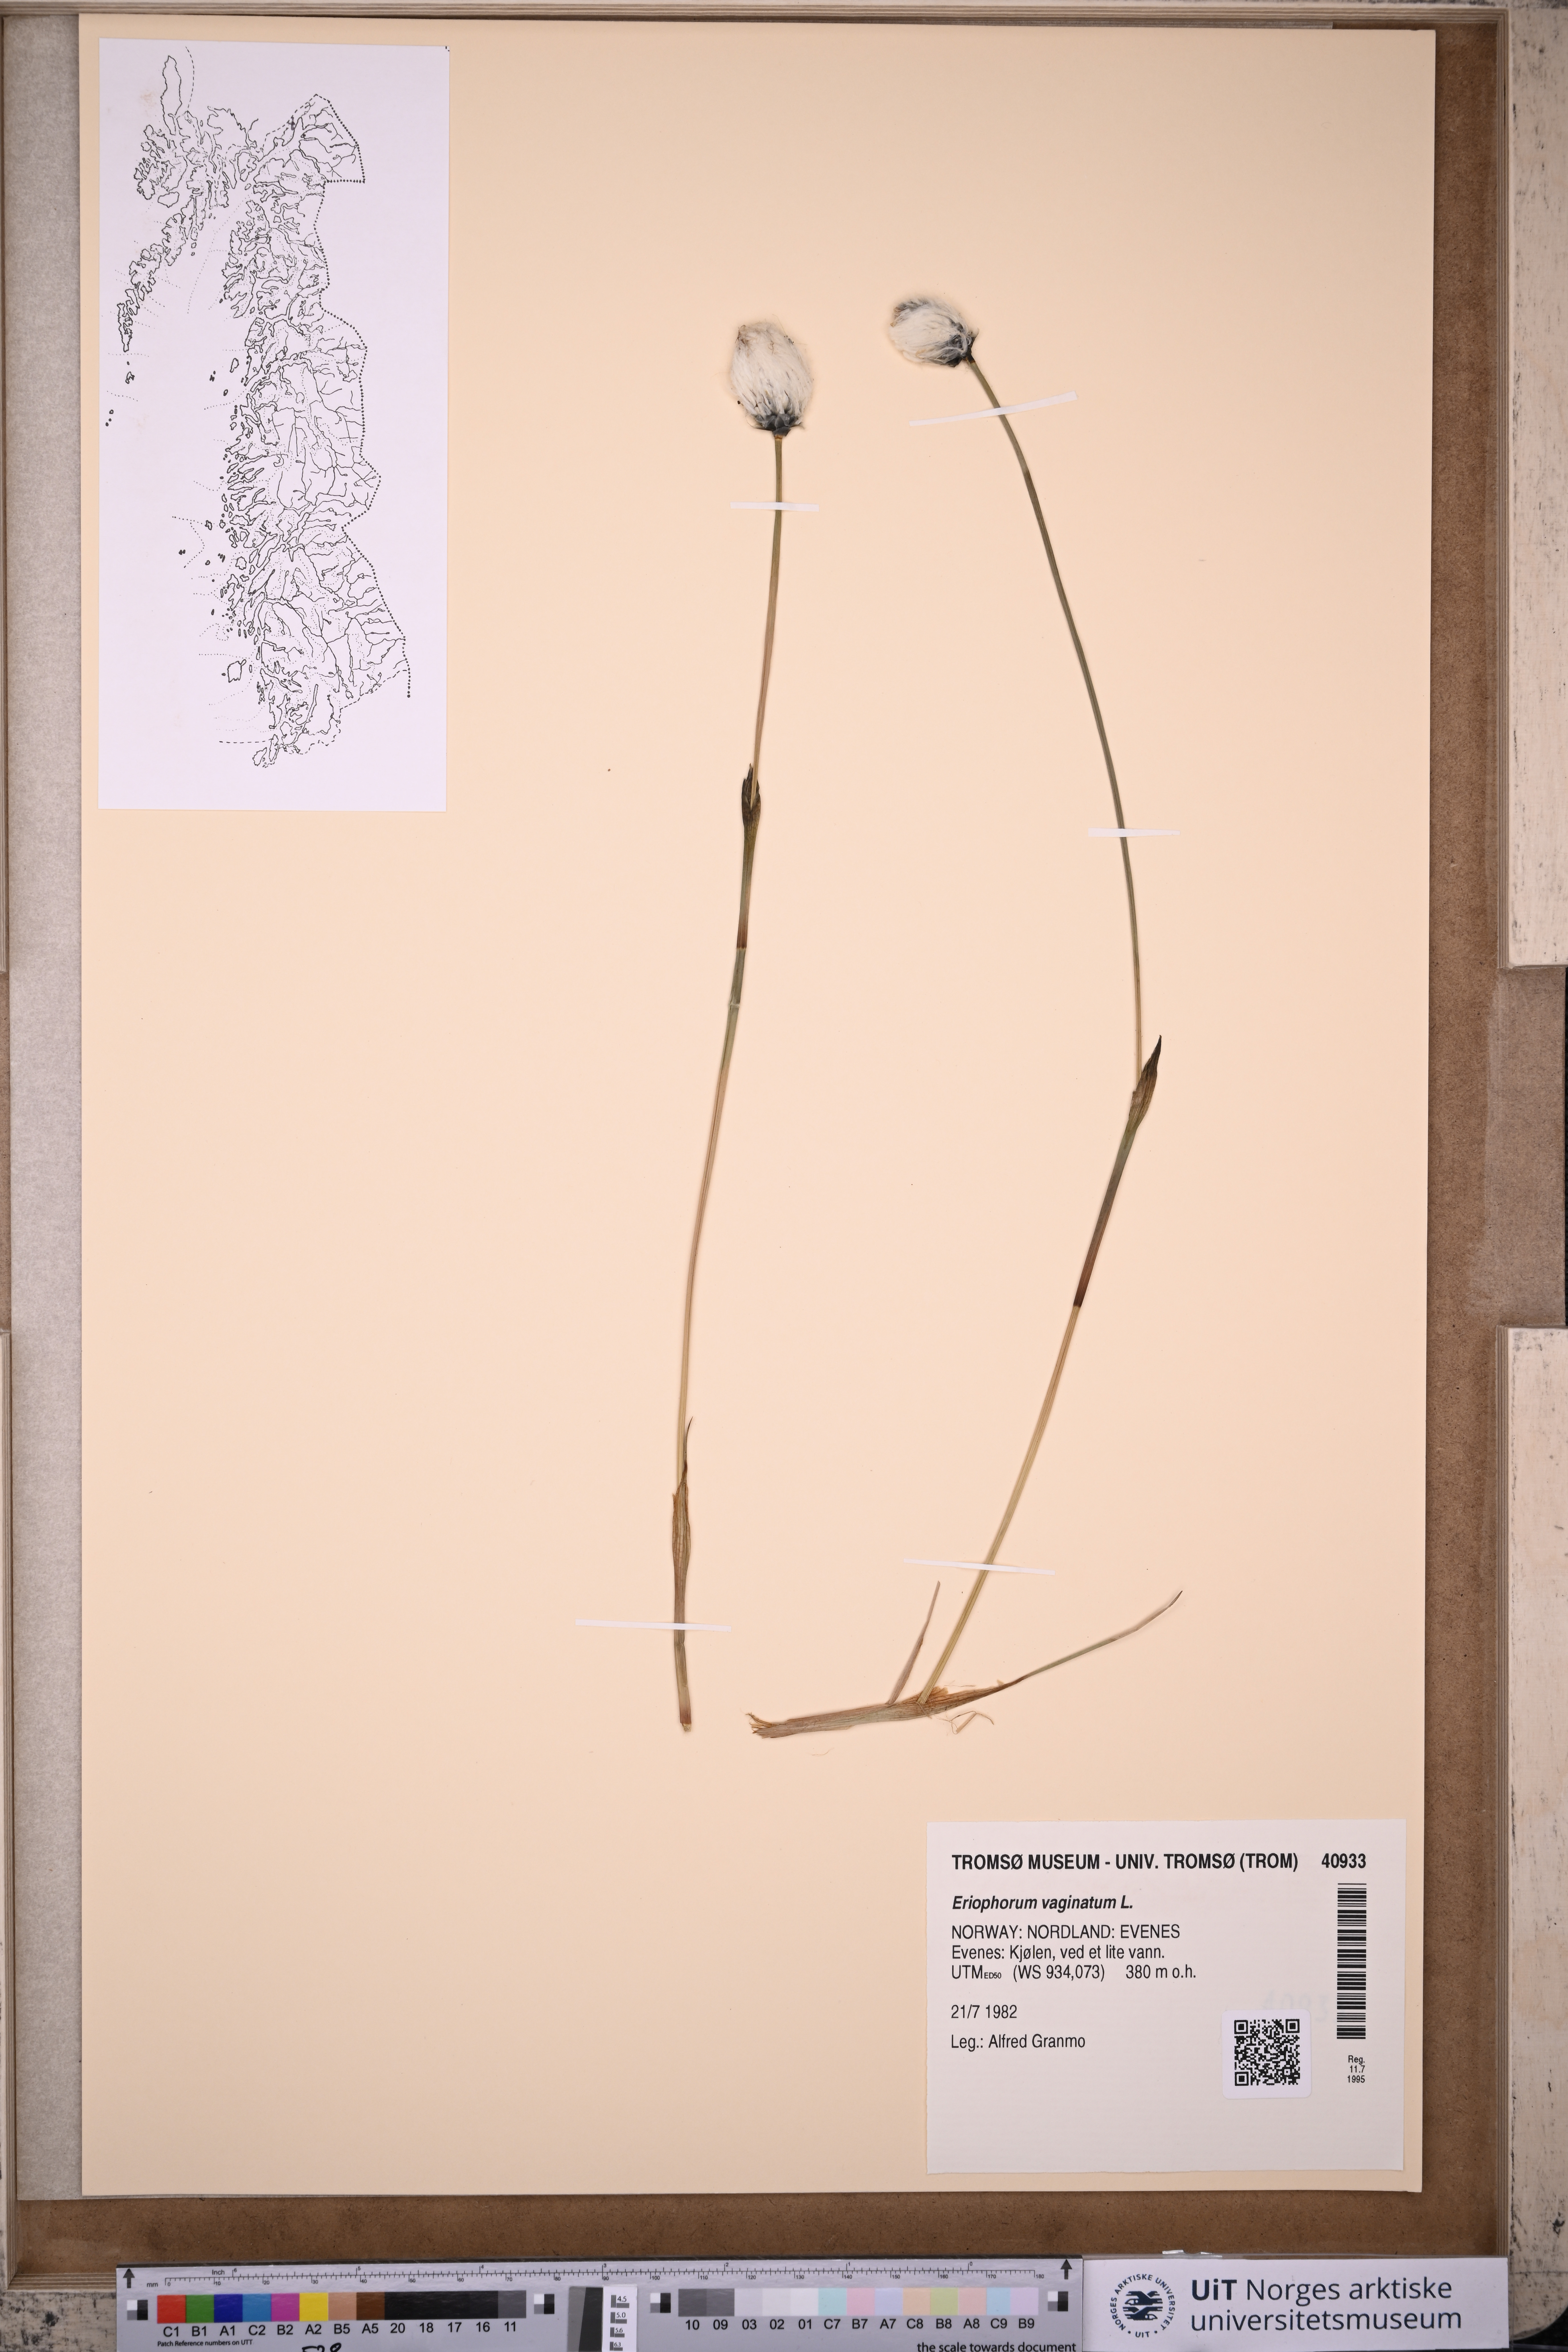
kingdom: Plantae
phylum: Tracheophyta
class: Liliopsida
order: Poales
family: Cyperaceae
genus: Eriophorum
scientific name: Eriophorum vaginatum
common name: Hare's-tail cottongrass
